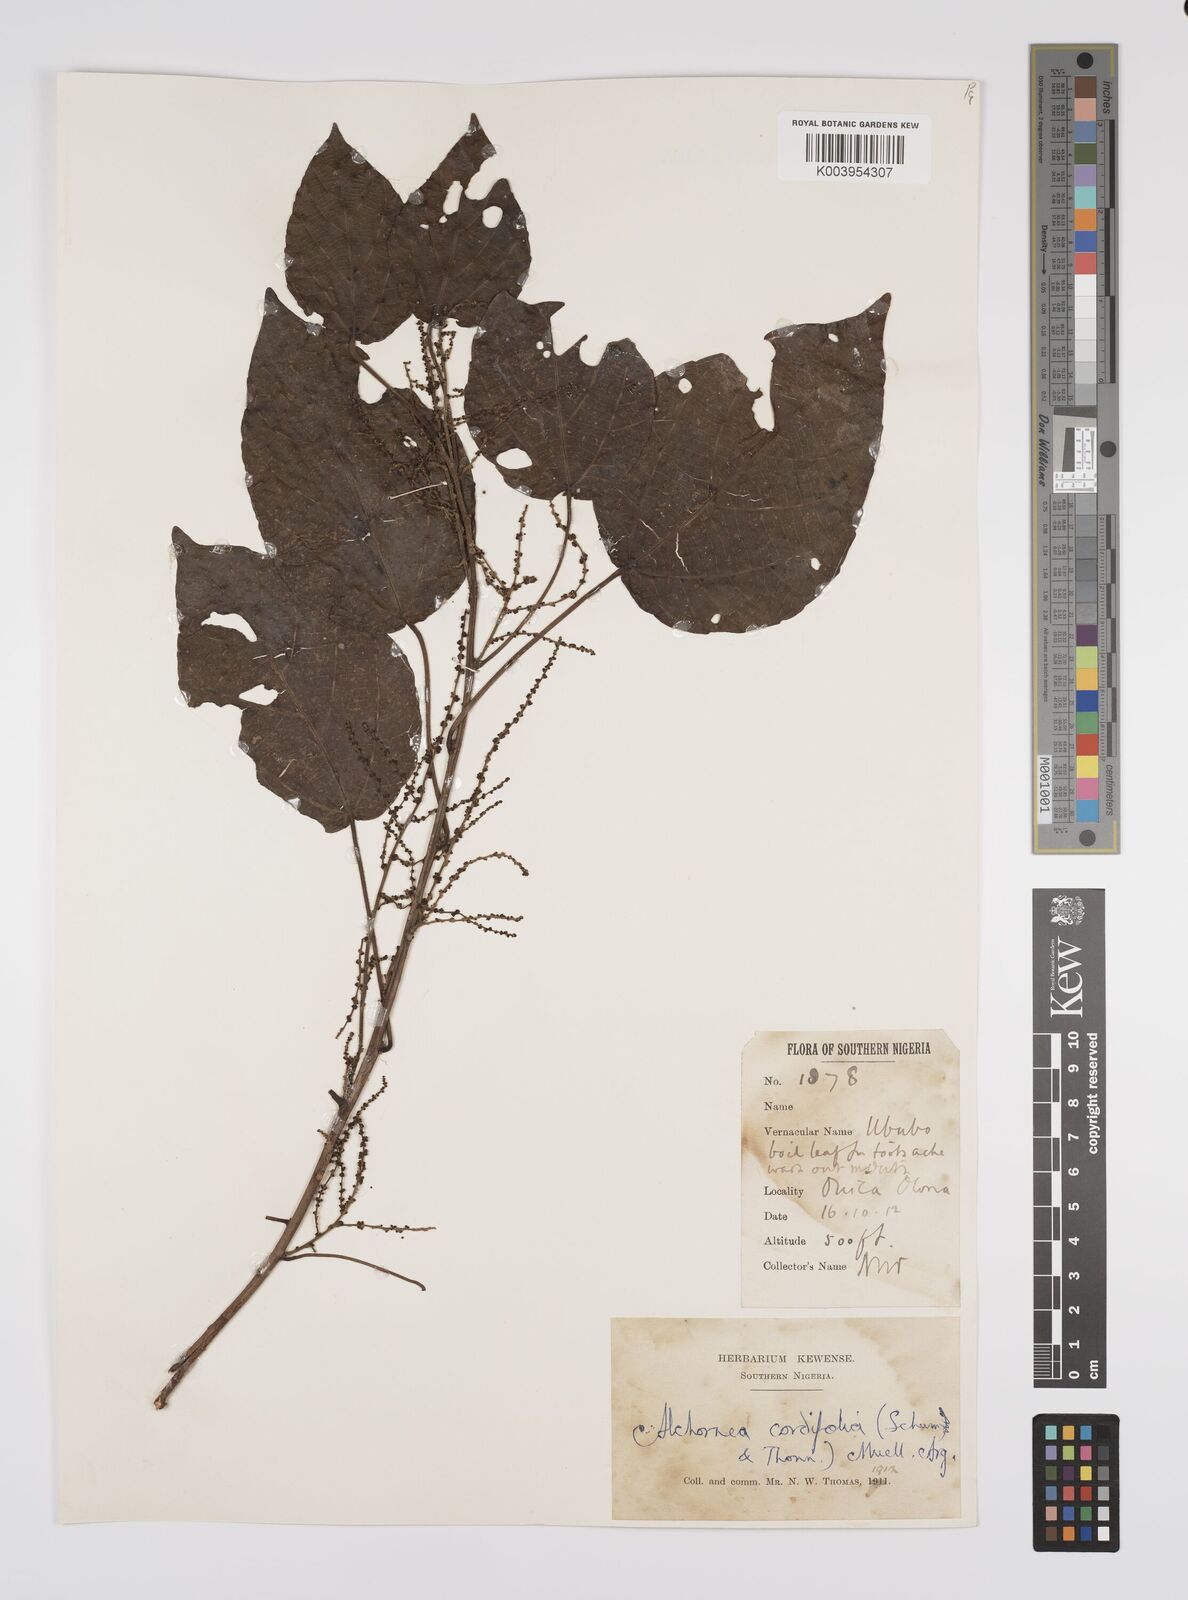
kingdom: Plantae
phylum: Tracheophyta
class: Magnoliopsida
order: Malpighiales
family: Euphorbiaceae
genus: Alchornea
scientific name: Alchornea cordifolia
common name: Christmasbush
